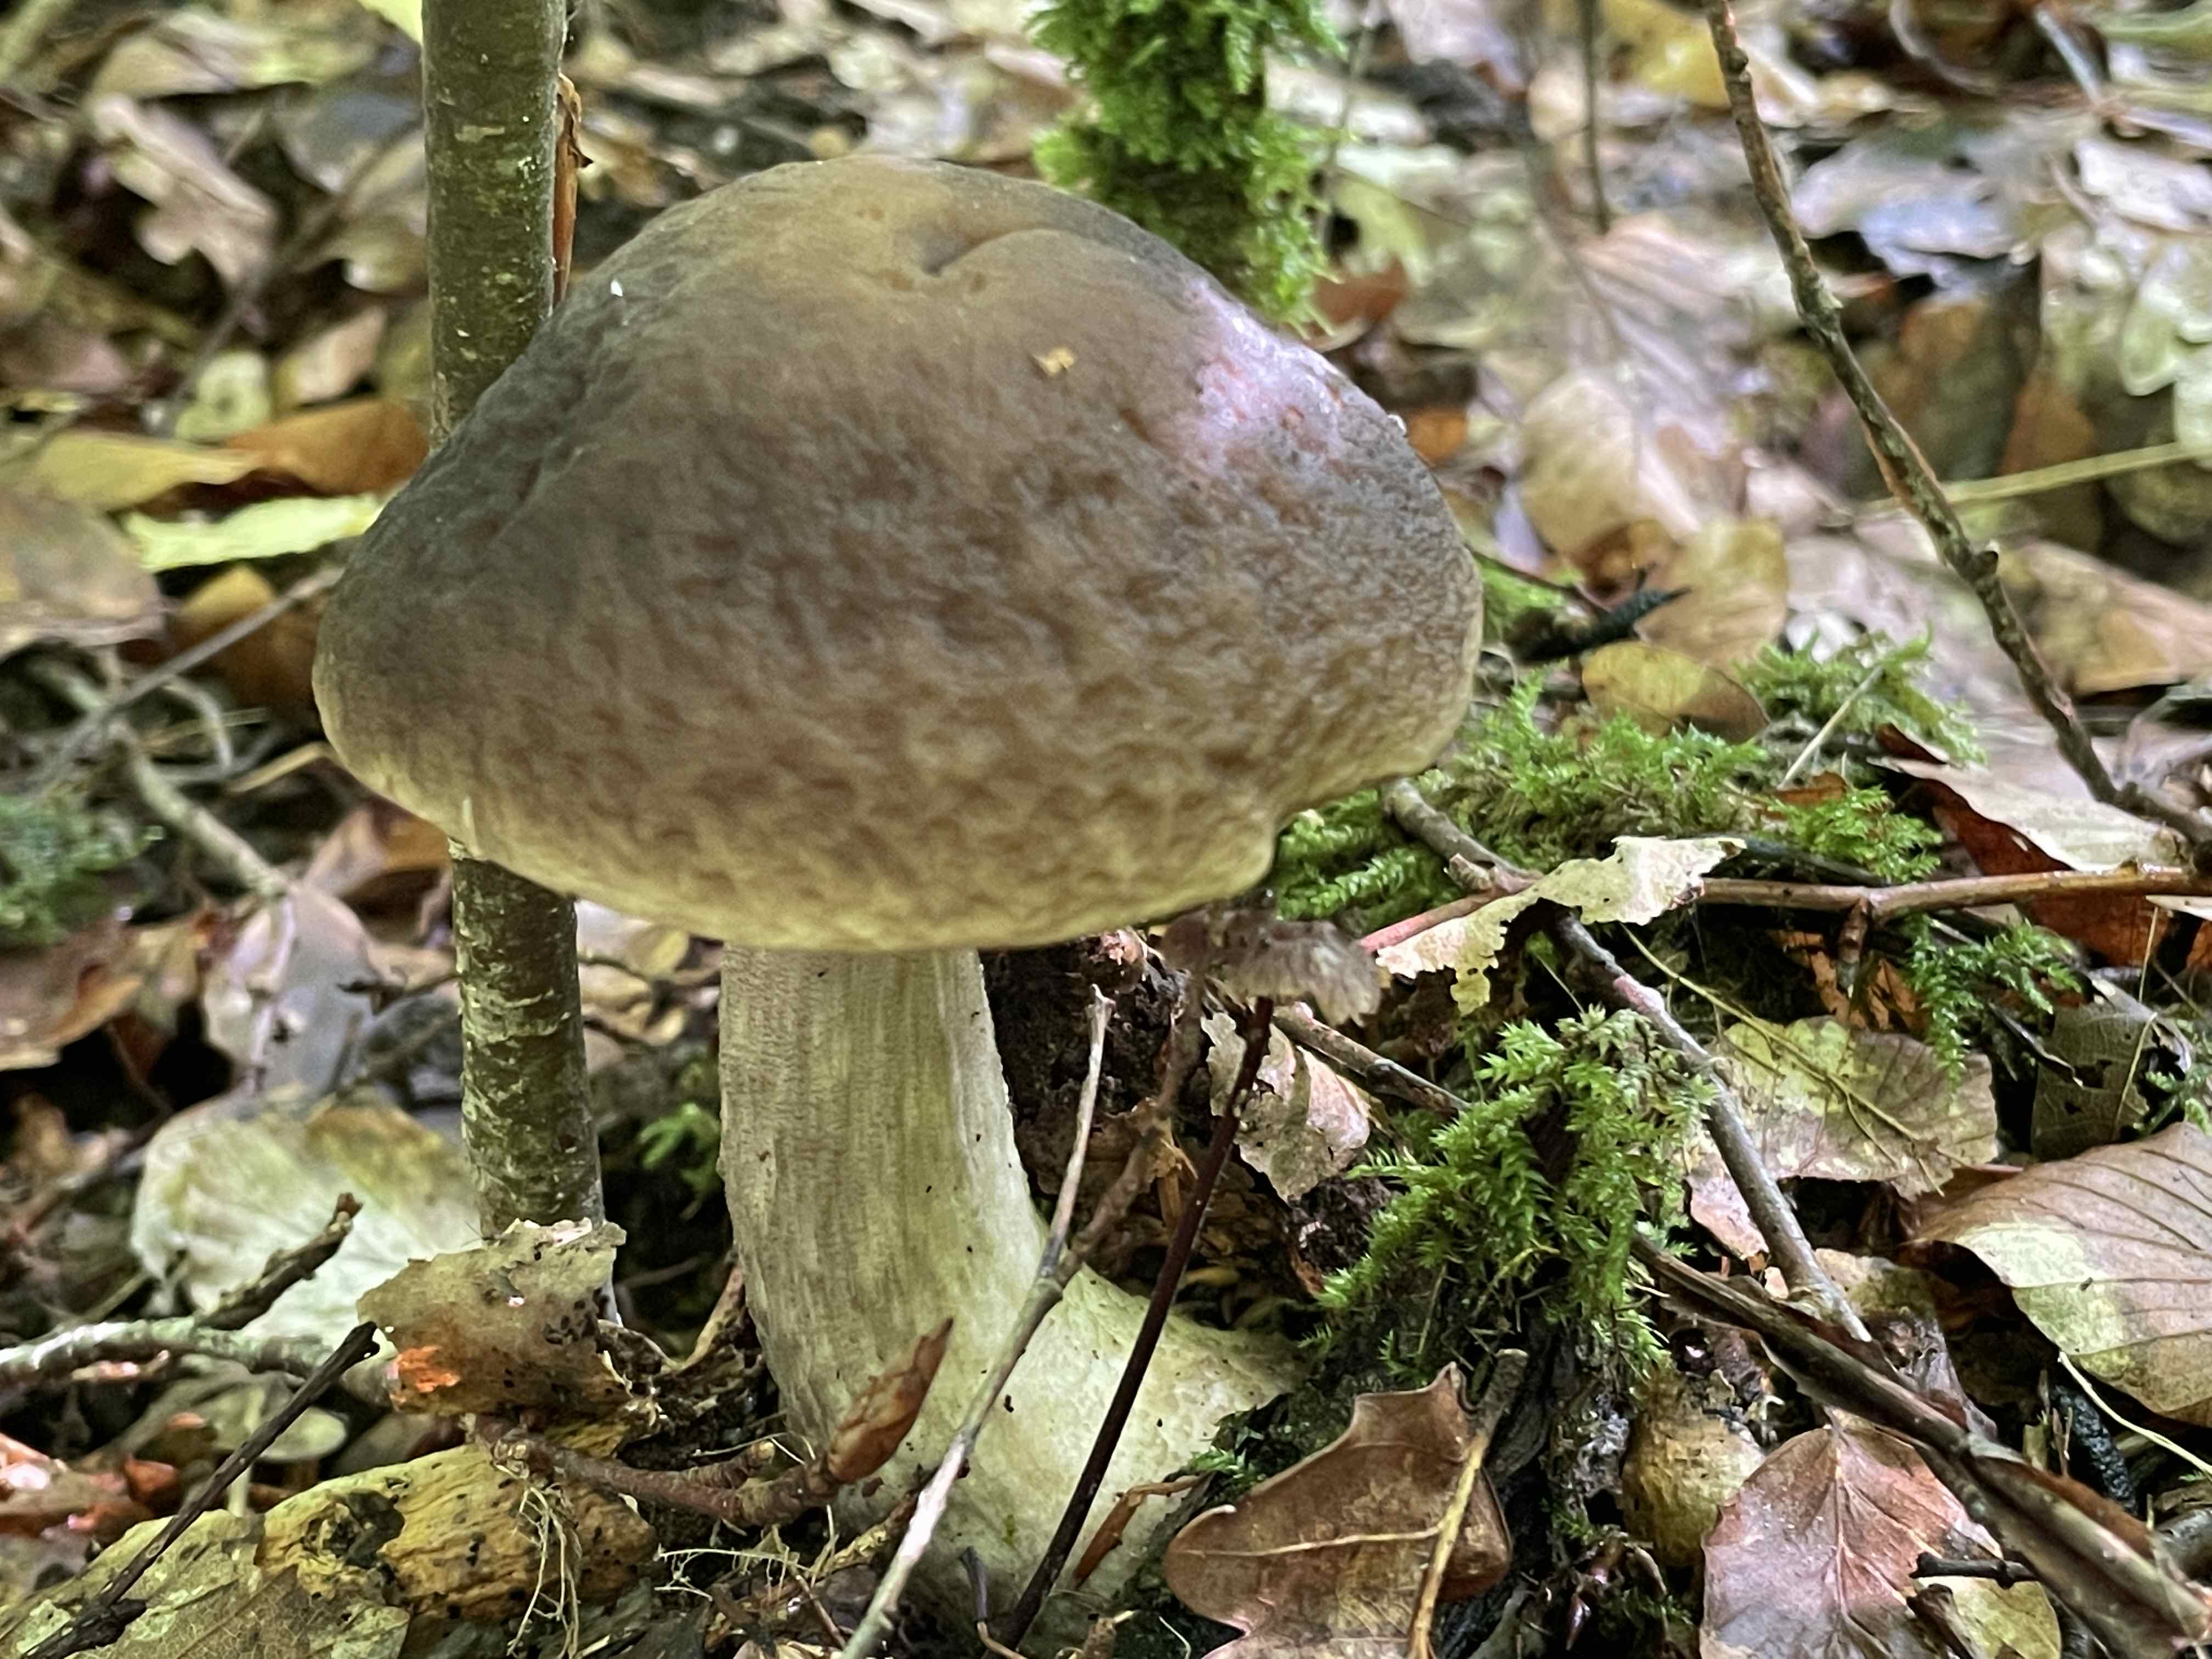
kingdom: Fungi
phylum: Basidiomycota
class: Agaricomycetes
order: Boletales
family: Boletaceae
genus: Leccinellum
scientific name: Leccinellum pseudoscabrum
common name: avnbøg-skælrørhat
